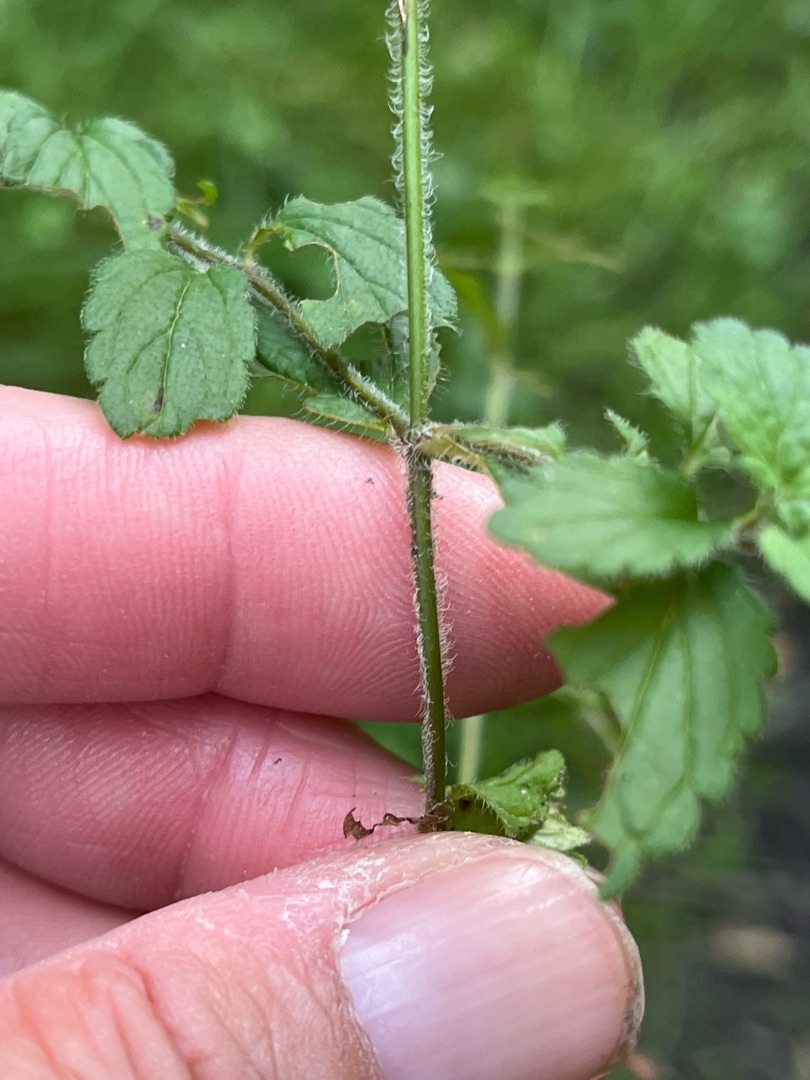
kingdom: Plantae
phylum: Tracheophyta
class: Magnoliopsida
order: Lamiales
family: Plantaginaceae
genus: Veronica
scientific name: Veronica chamaedrys
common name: Tveskægget ærenpris
